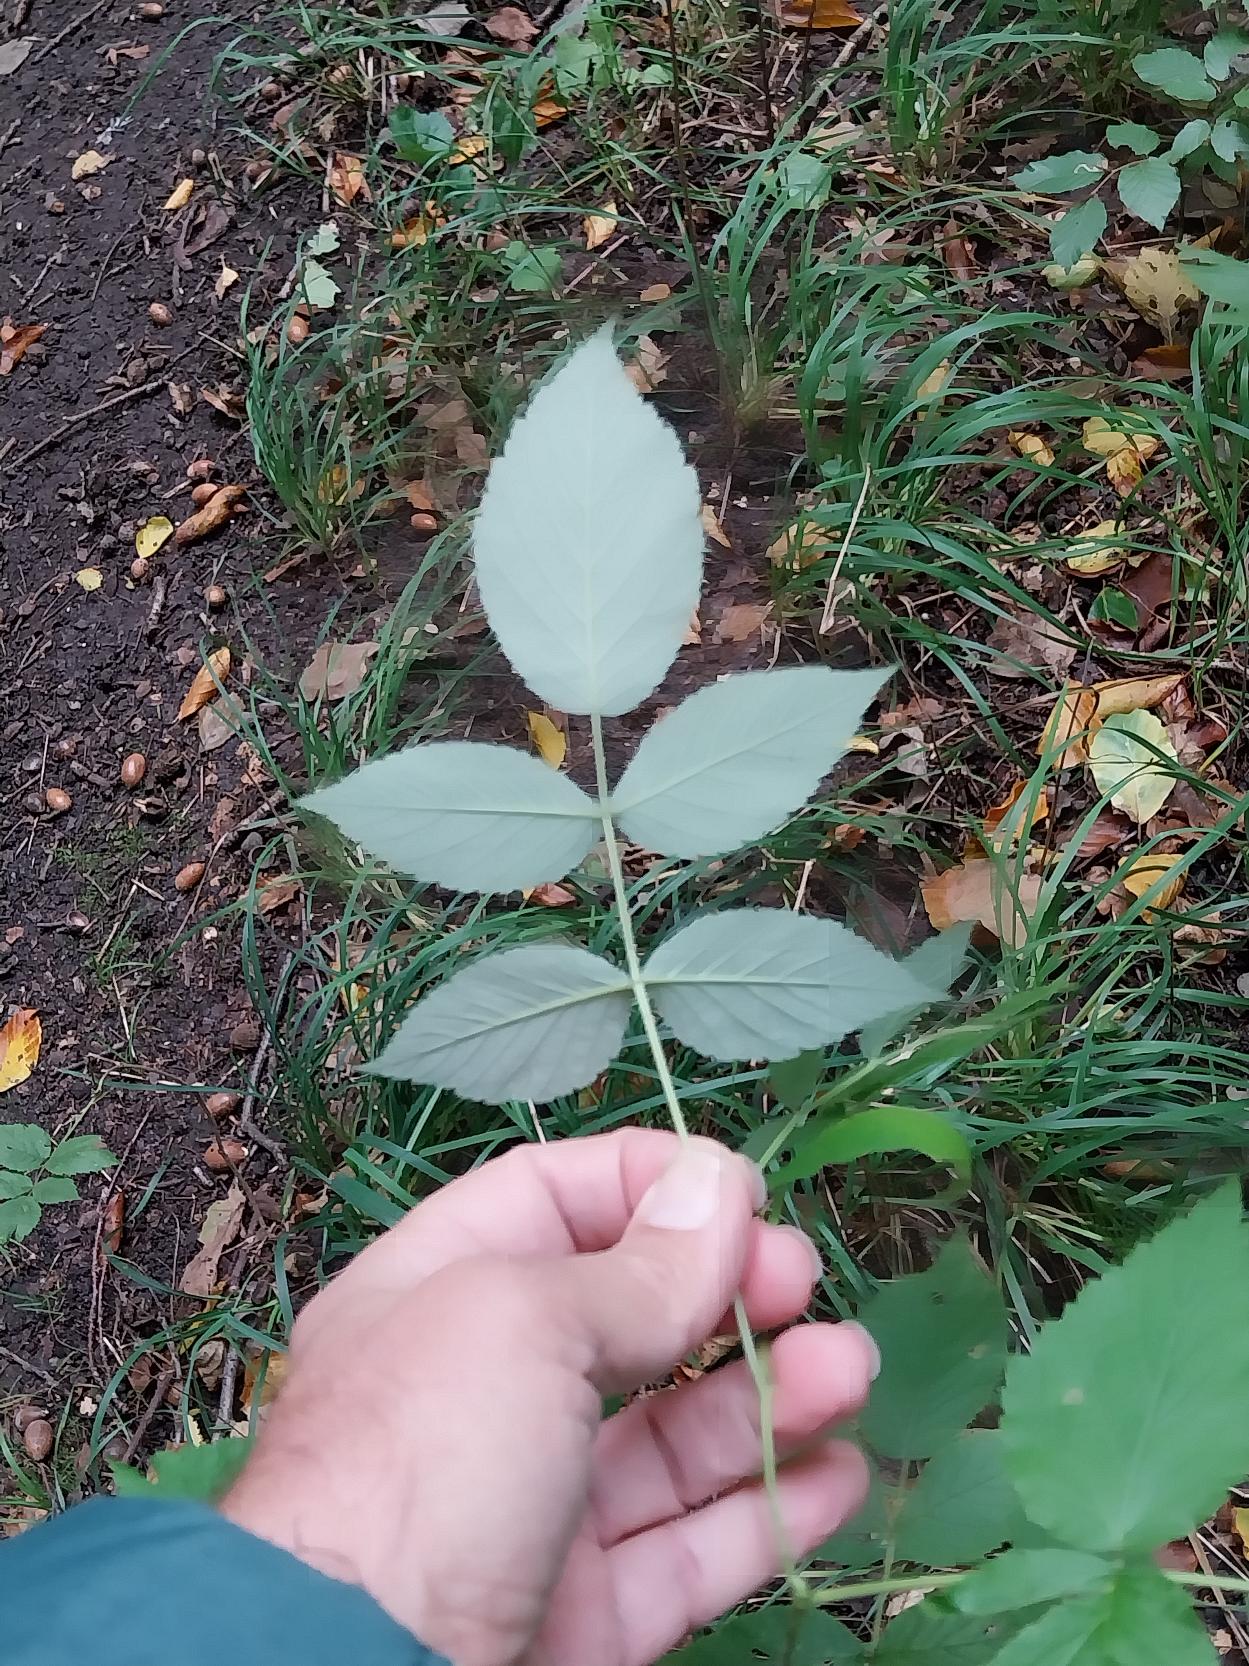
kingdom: Plantae
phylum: Tracheophyta
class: Magnoliopsida
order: Rosales
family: Rosaceae
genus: Rubus
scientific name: Rubus idaeus
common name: Hindbær
